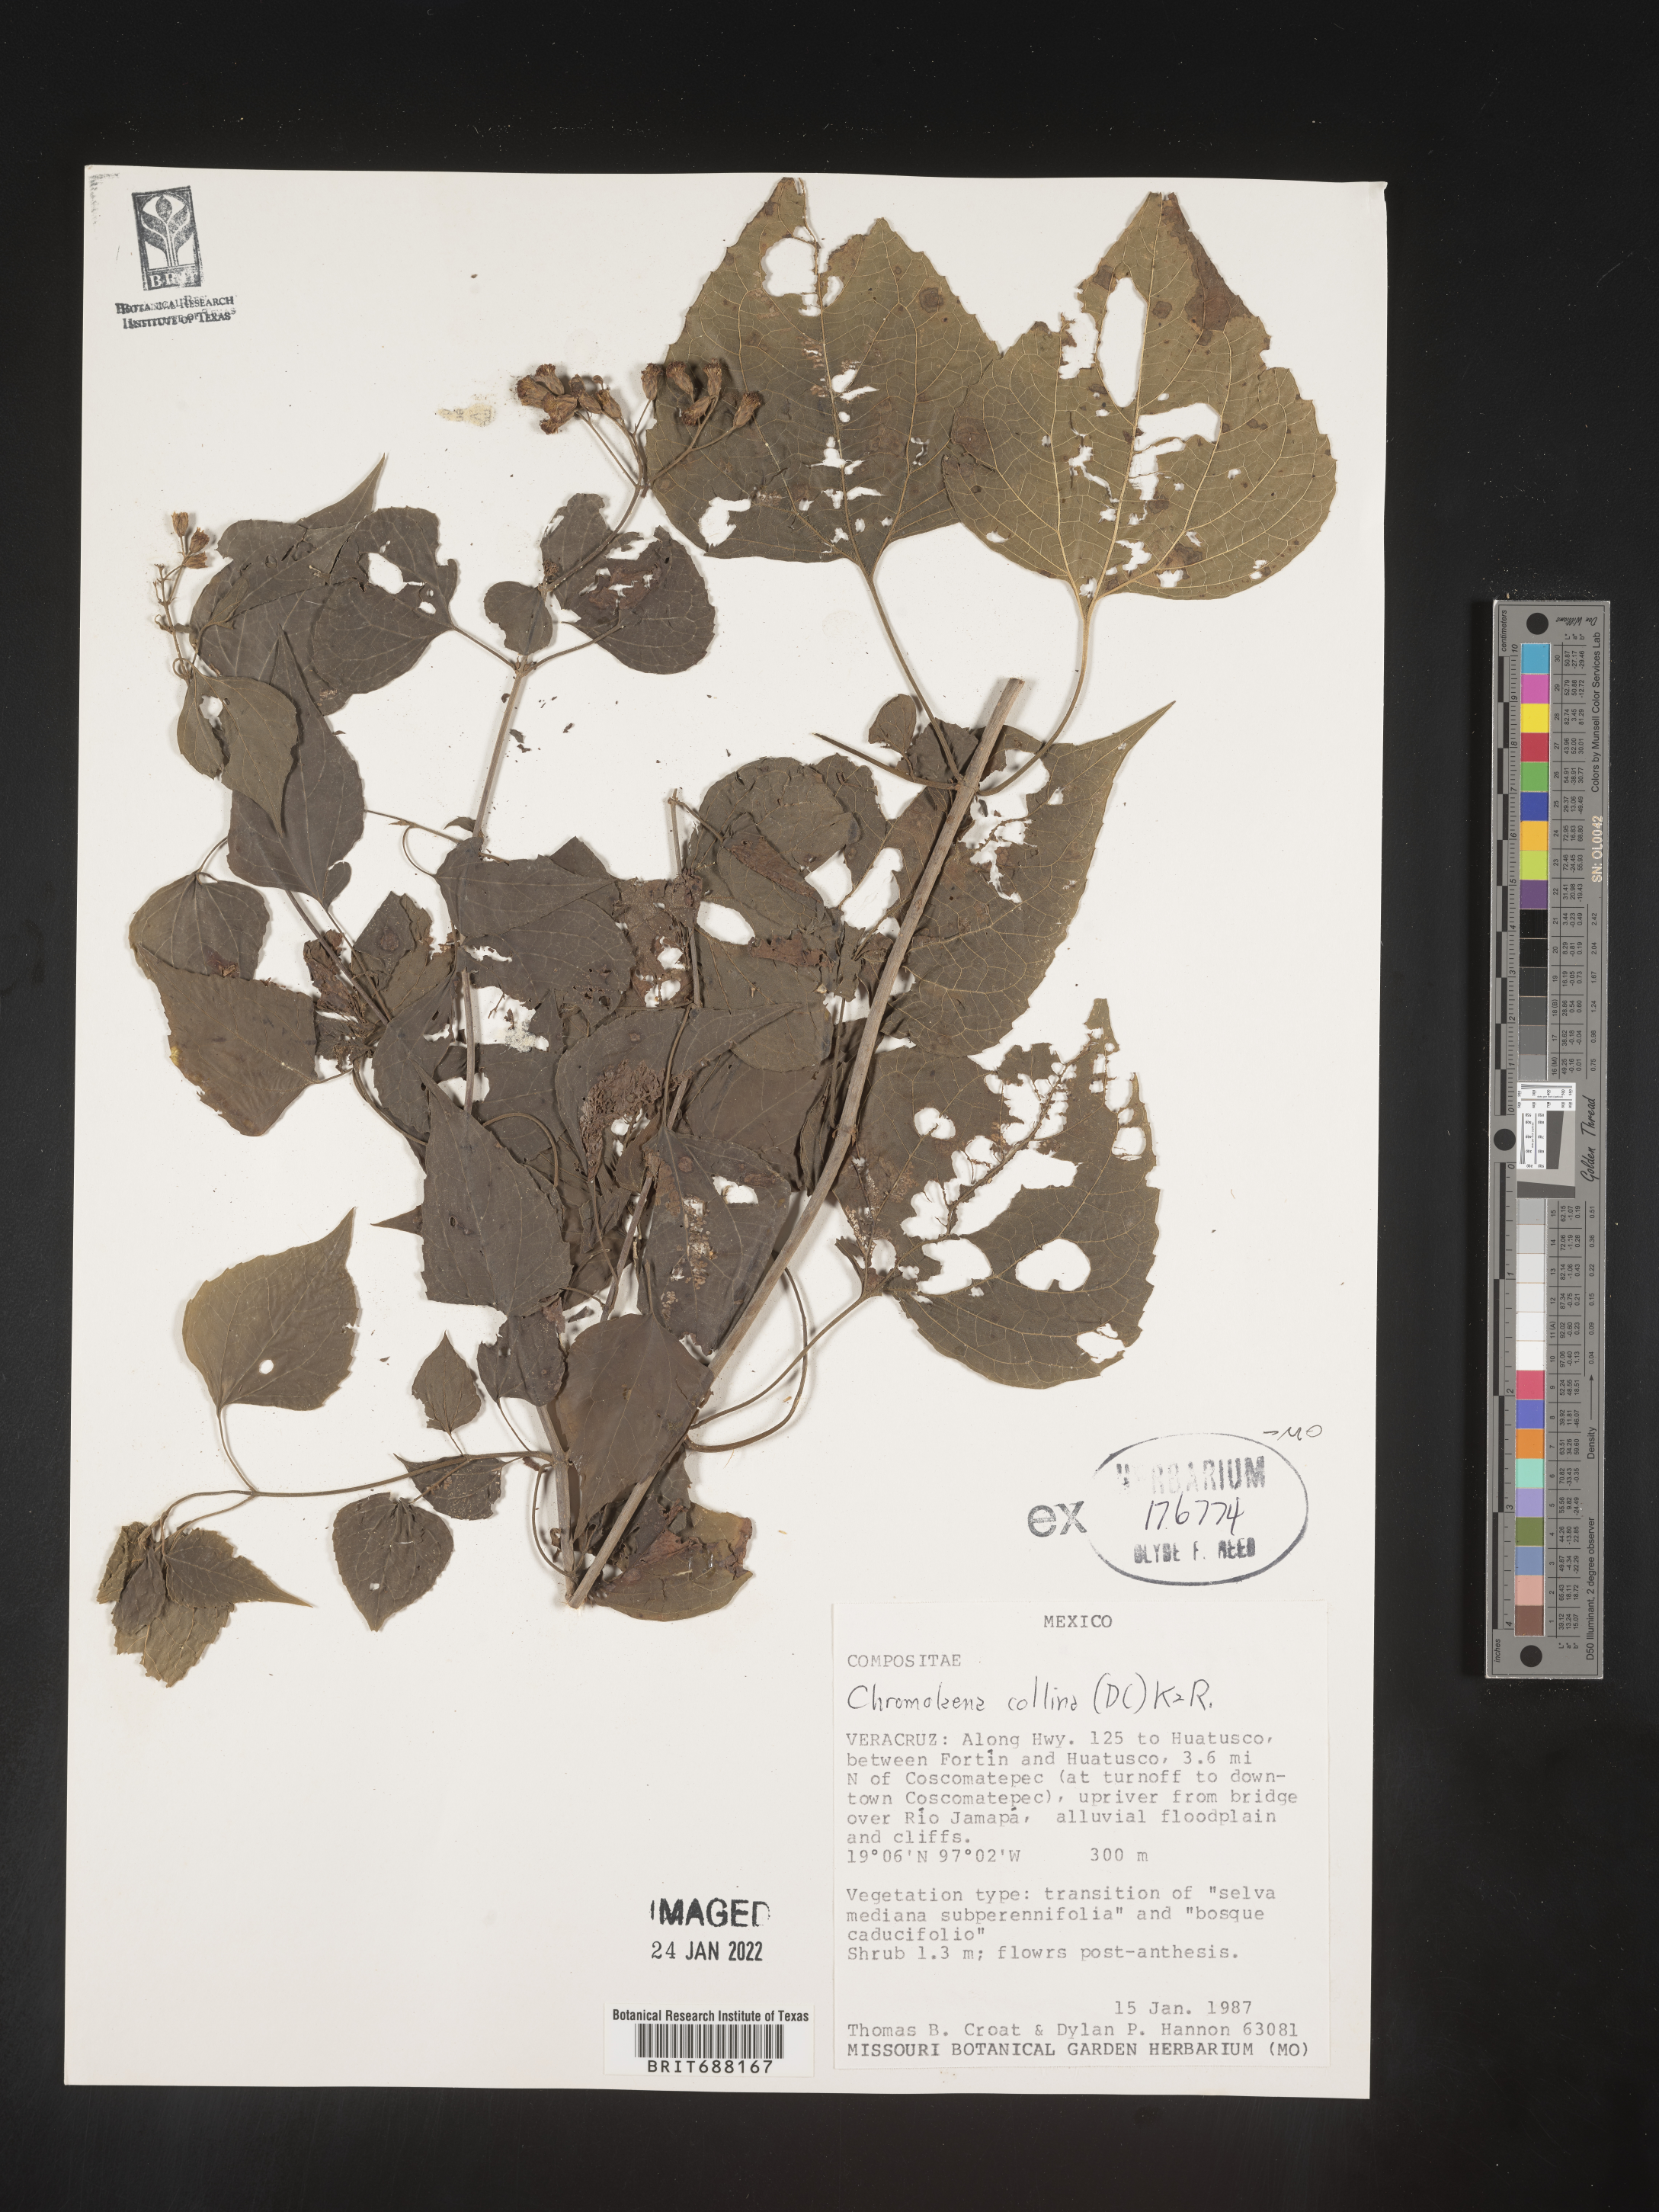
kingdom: Plantae
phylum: Tracheophyta
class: Magnoliopsida
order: Asterales
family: Asteraceae
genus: Chromolaena
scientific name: Chromolaena collina
